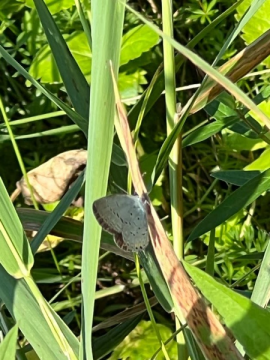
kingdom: Animalia
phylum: Arthropoda
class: Insecta
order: Lepidoptera
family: Lycaenidae
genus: Cyaniris
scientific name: Cyaniris neglecta
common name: Summer Azure
